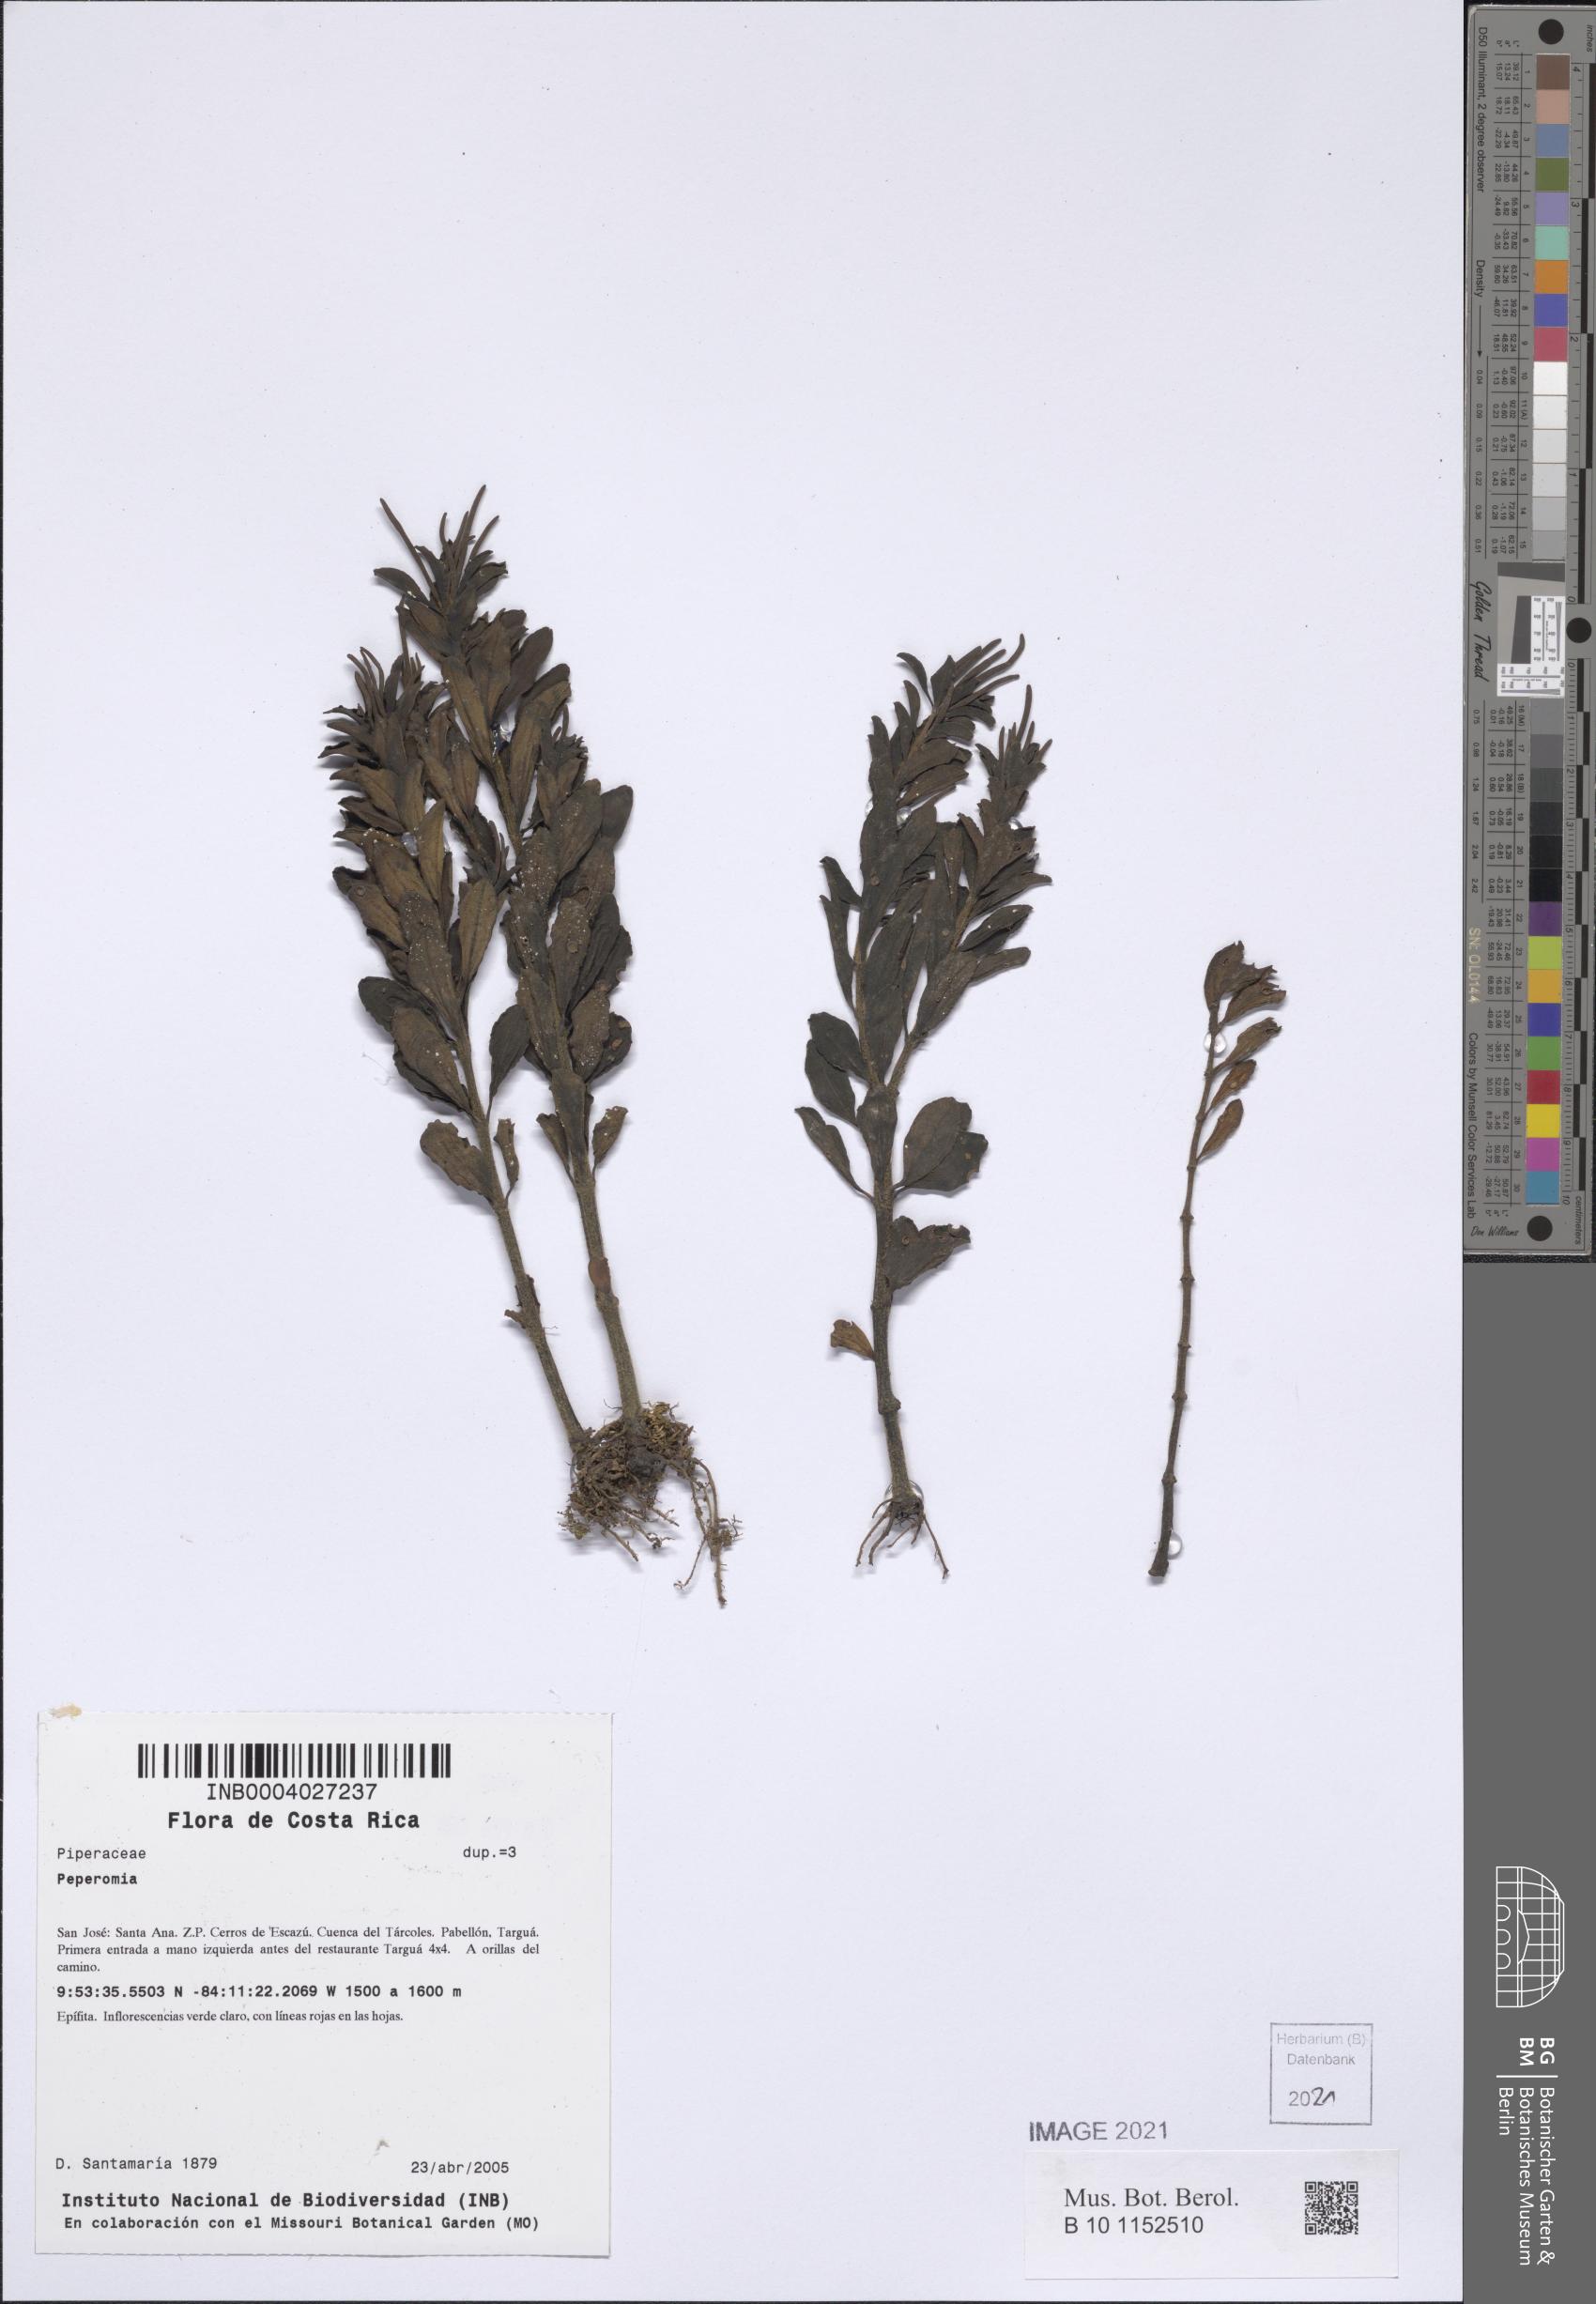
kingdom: Plantae
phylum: Tracheophyta
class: Magnoliopsida
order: Piperales
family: Piperaceae
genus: Peperomia
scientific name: Peperomia
